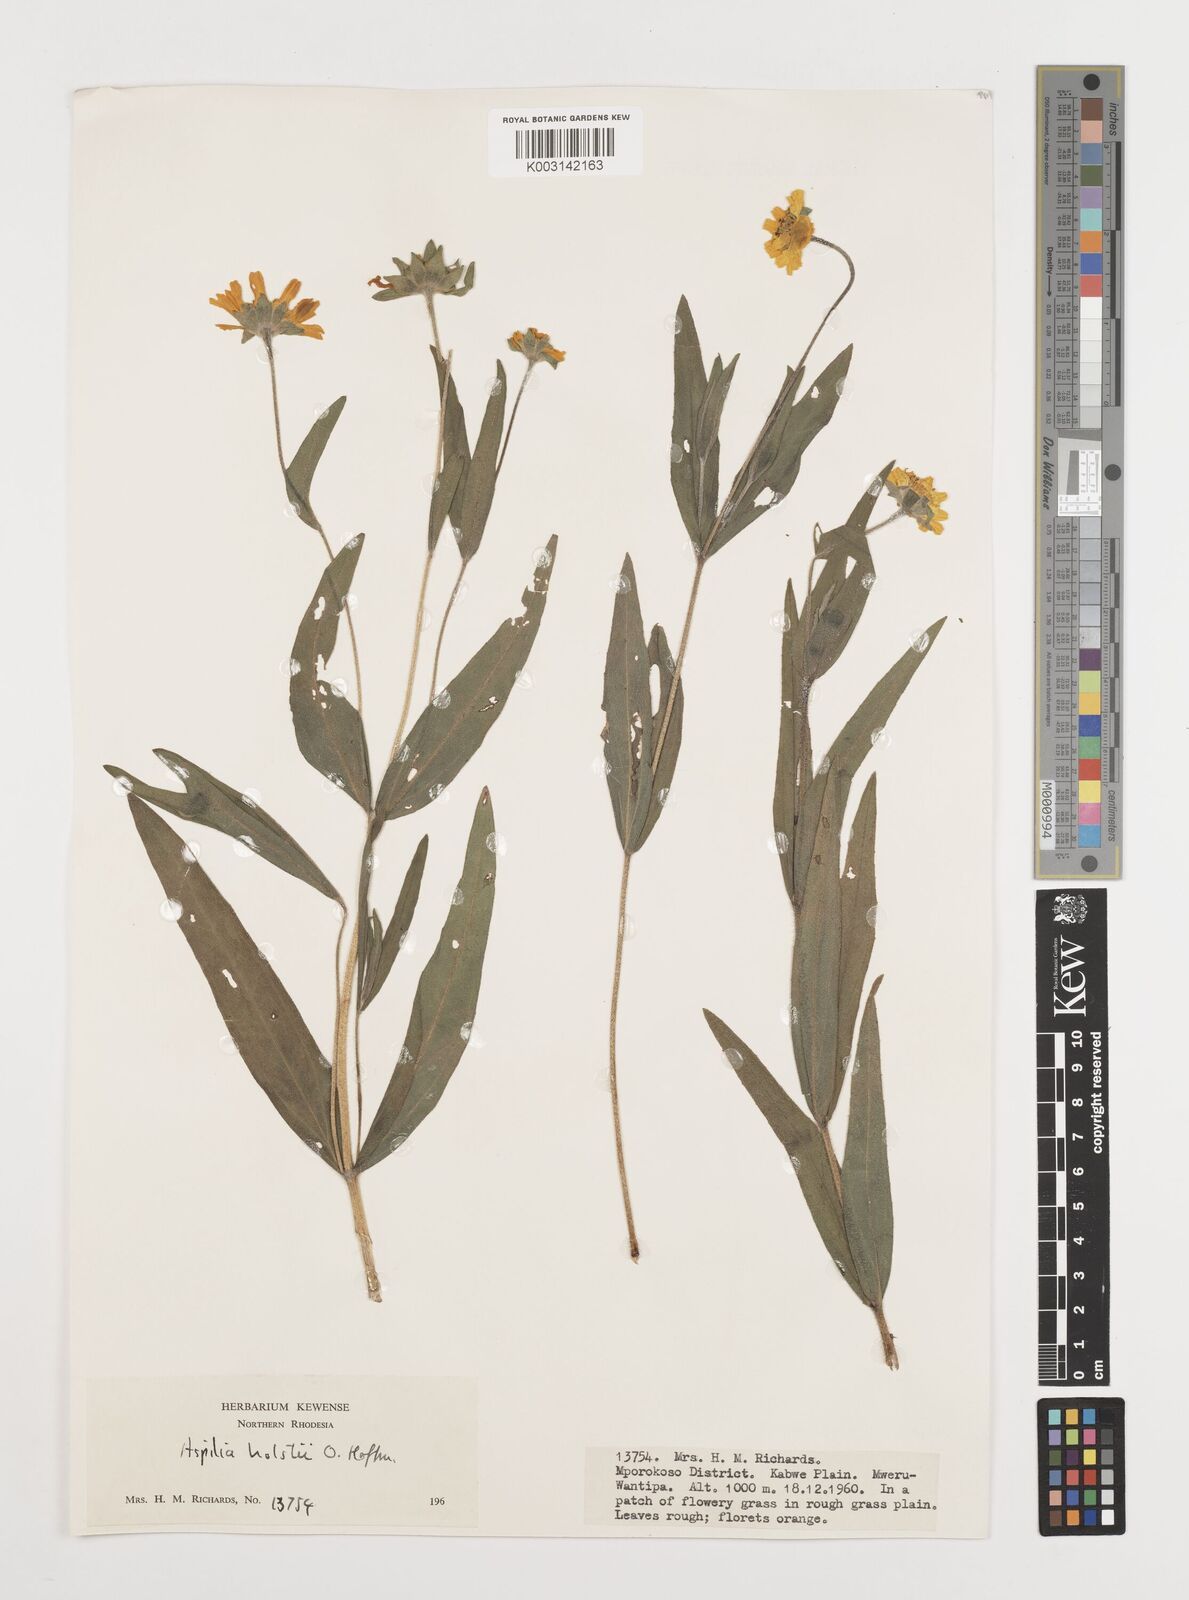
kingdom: Plantae
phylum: Tracheophyta
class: Magnoliopsida
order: Asterales
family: Asteraceae
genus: Aspilia
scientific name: Aspilia natalensis
